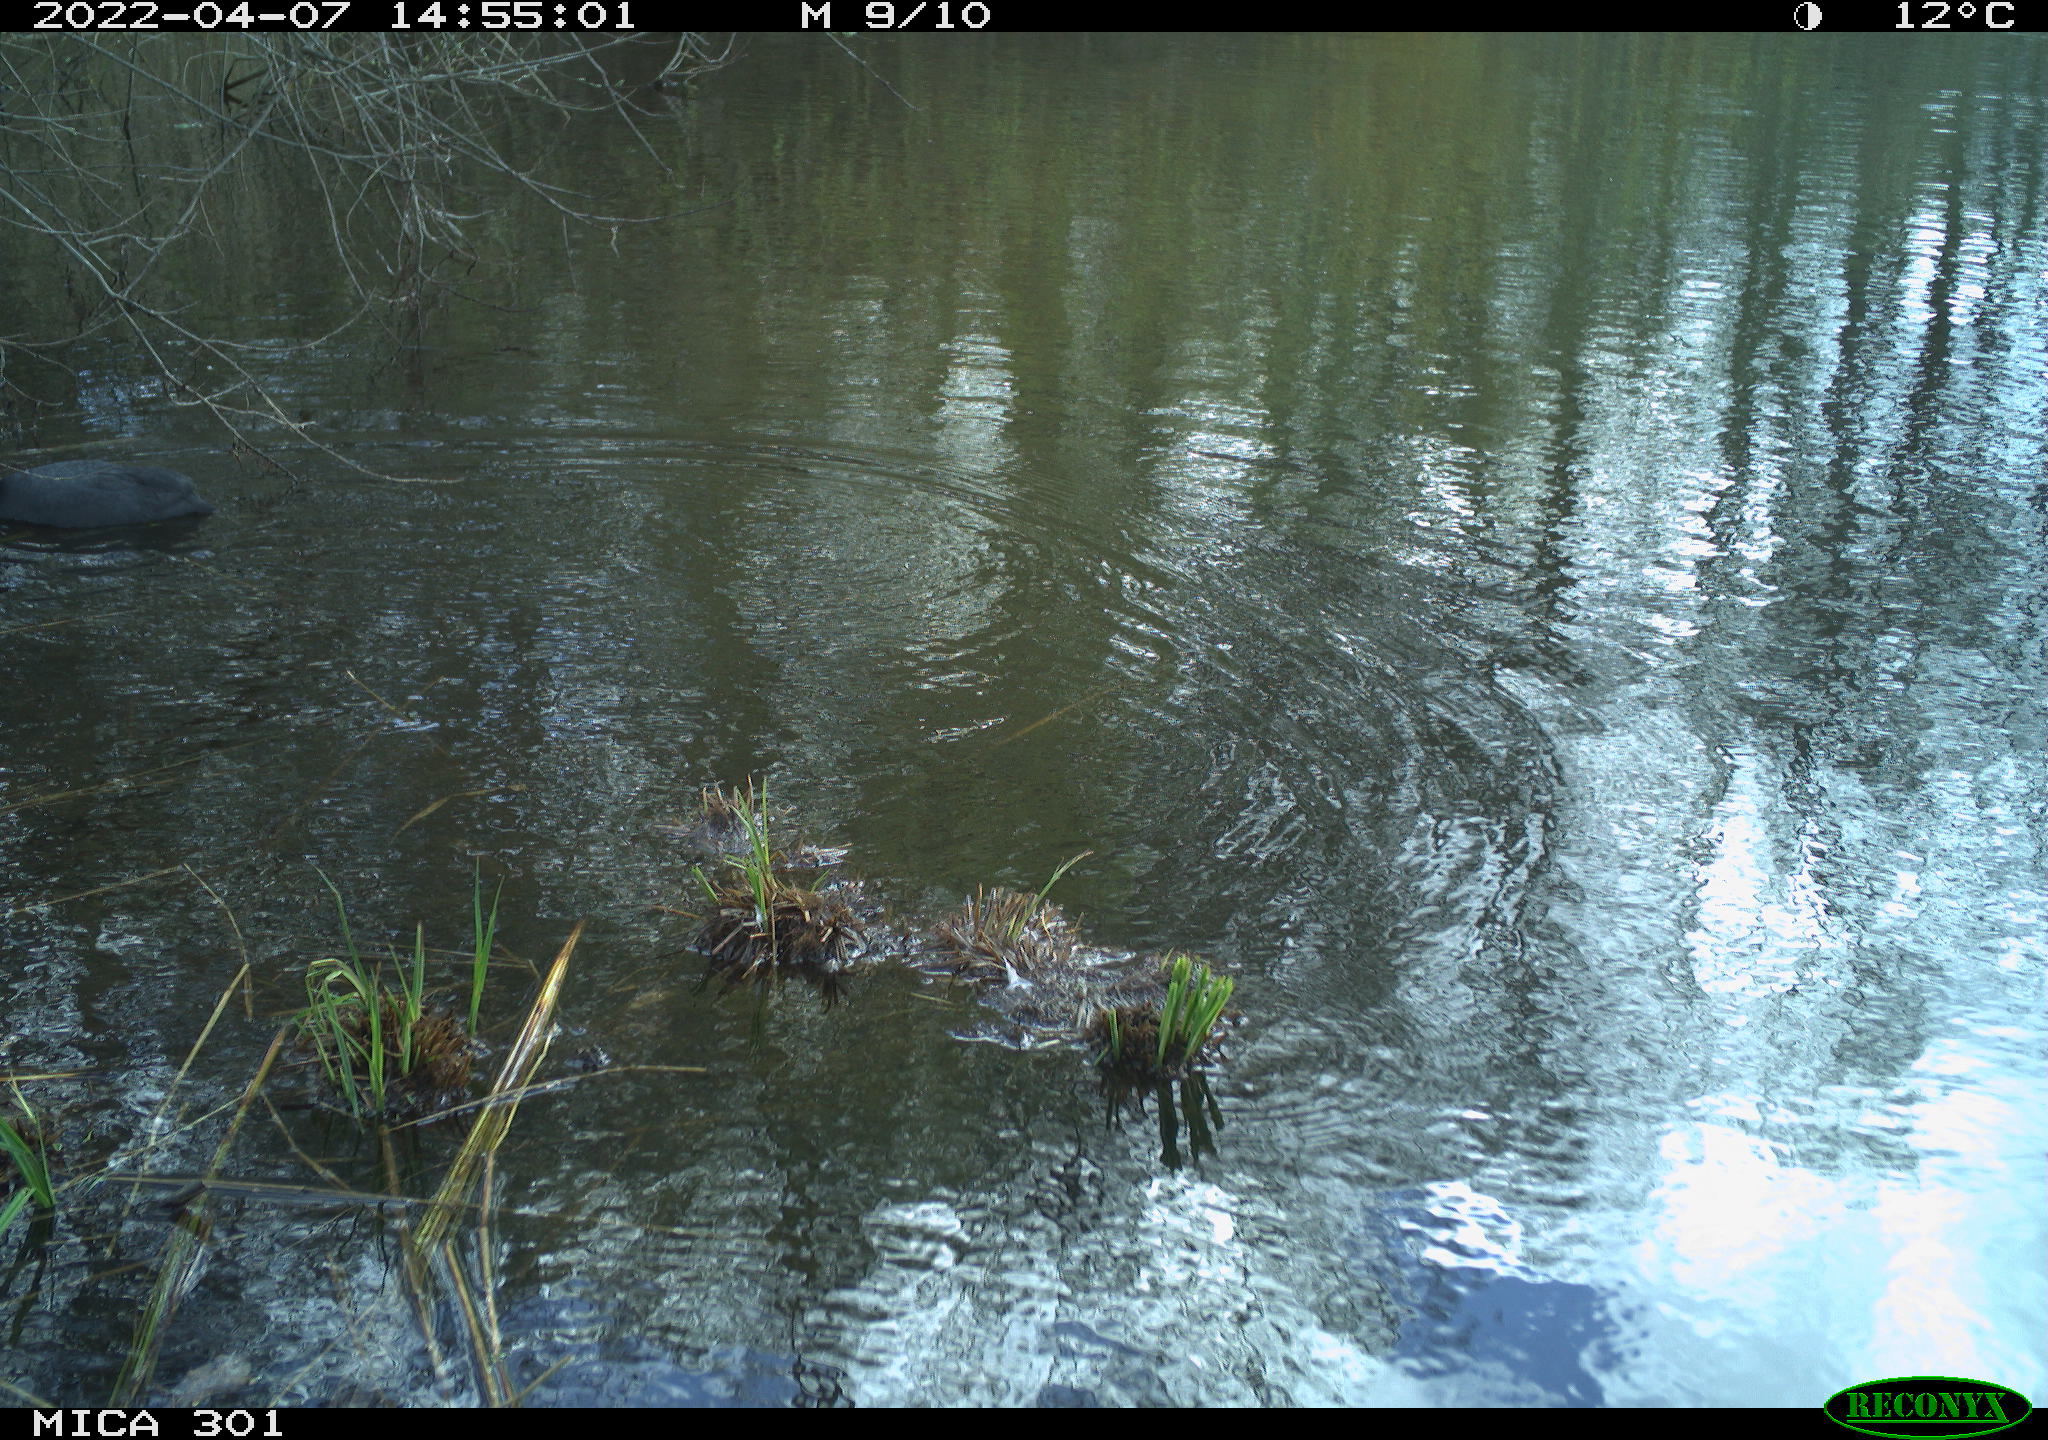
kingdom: Animalia
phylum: Chordata
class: Aves
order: Gruiformes
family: Rallidae
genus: Fulica
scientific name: Fulica atra
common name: Eurasian coot
